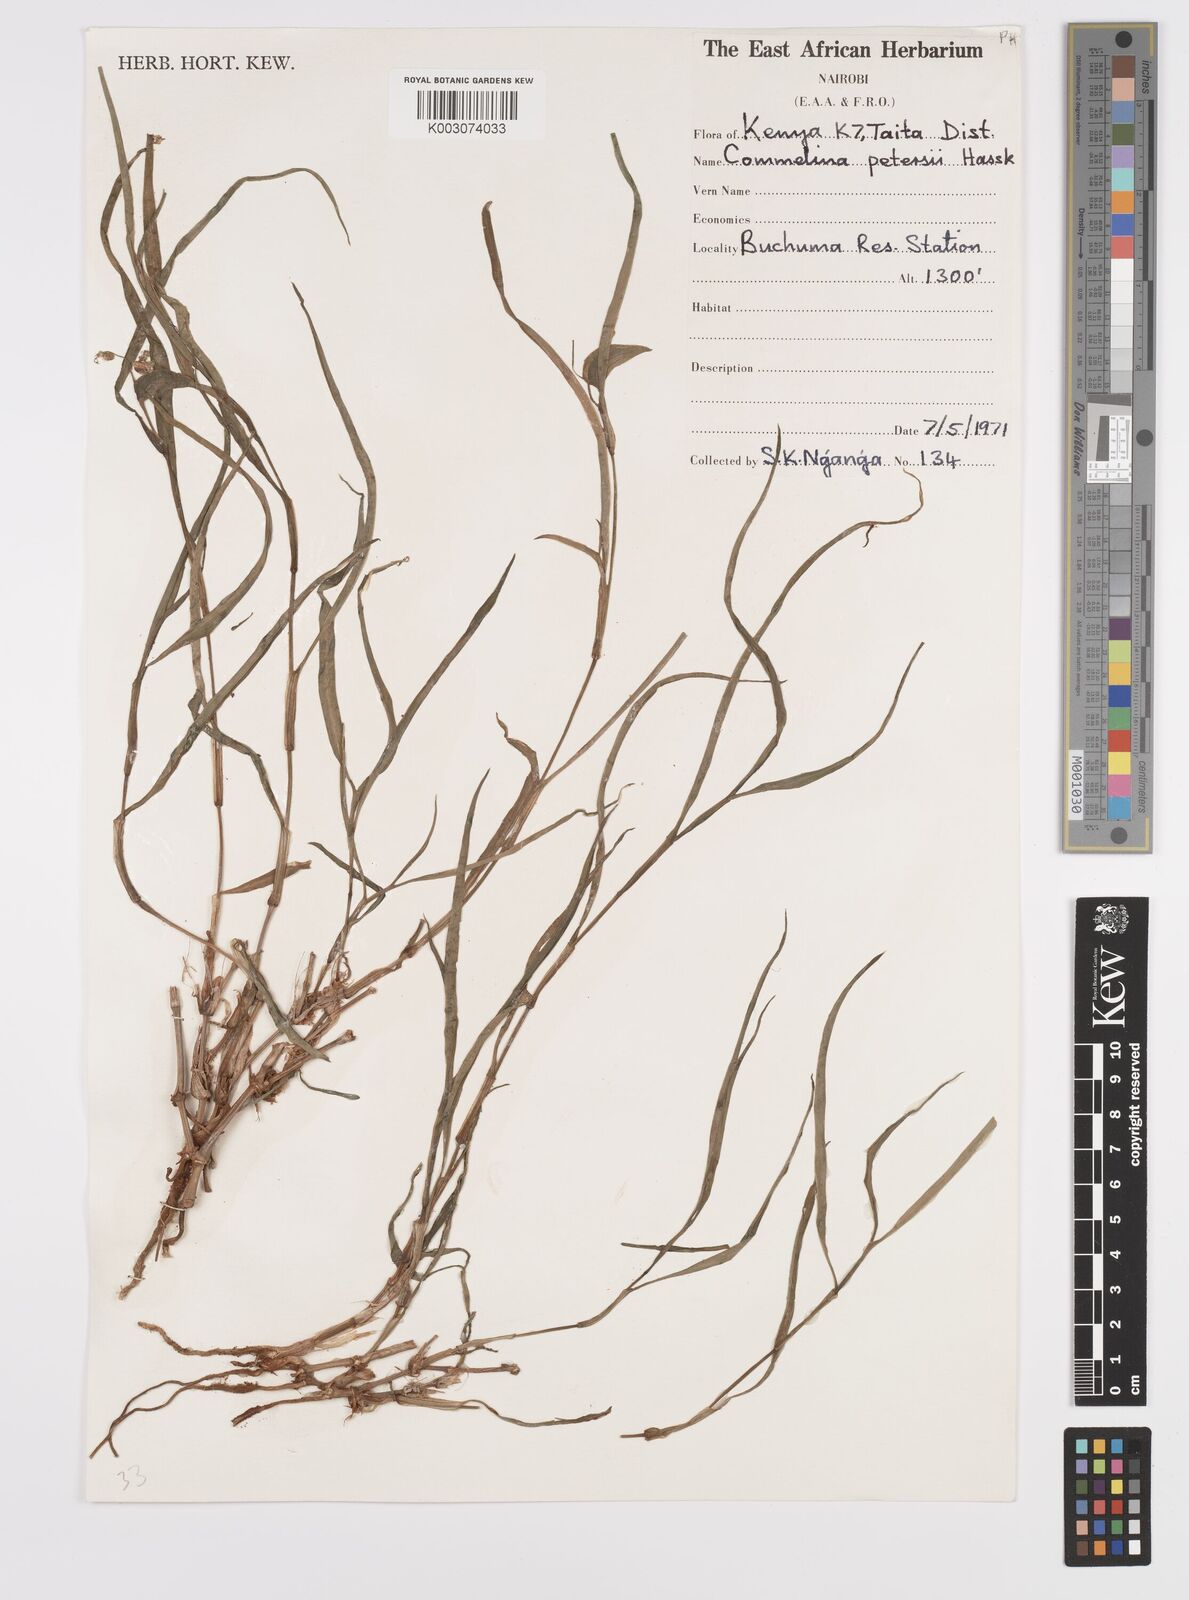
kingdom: Plantae
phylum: Tracheophyta
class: Liliopsida
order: Commelinales
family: Commelinaceae
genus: Commelina
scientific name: Commelina petersii
